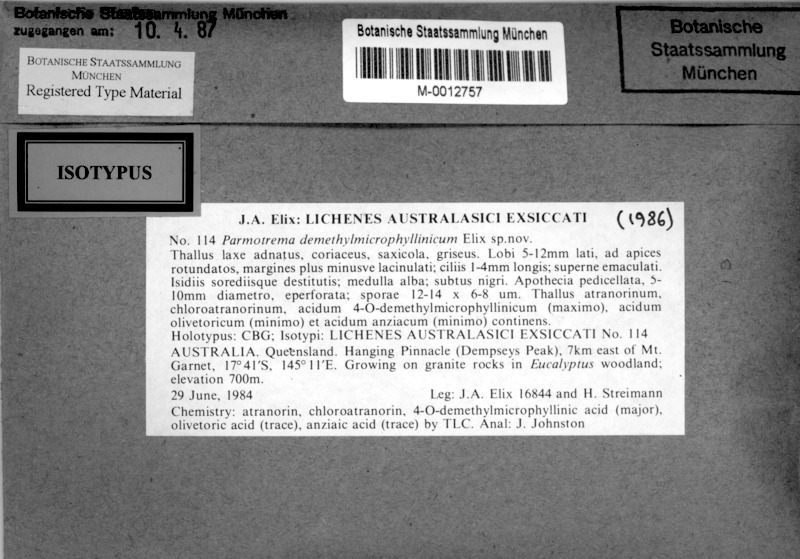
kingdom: Fungi
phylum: Ascomycota
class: Lecanoromycetes
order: Lecanorales
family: Parmeliaceae
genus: Parmotrema
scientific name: Parmotrema demethylmicrophyllinicum
